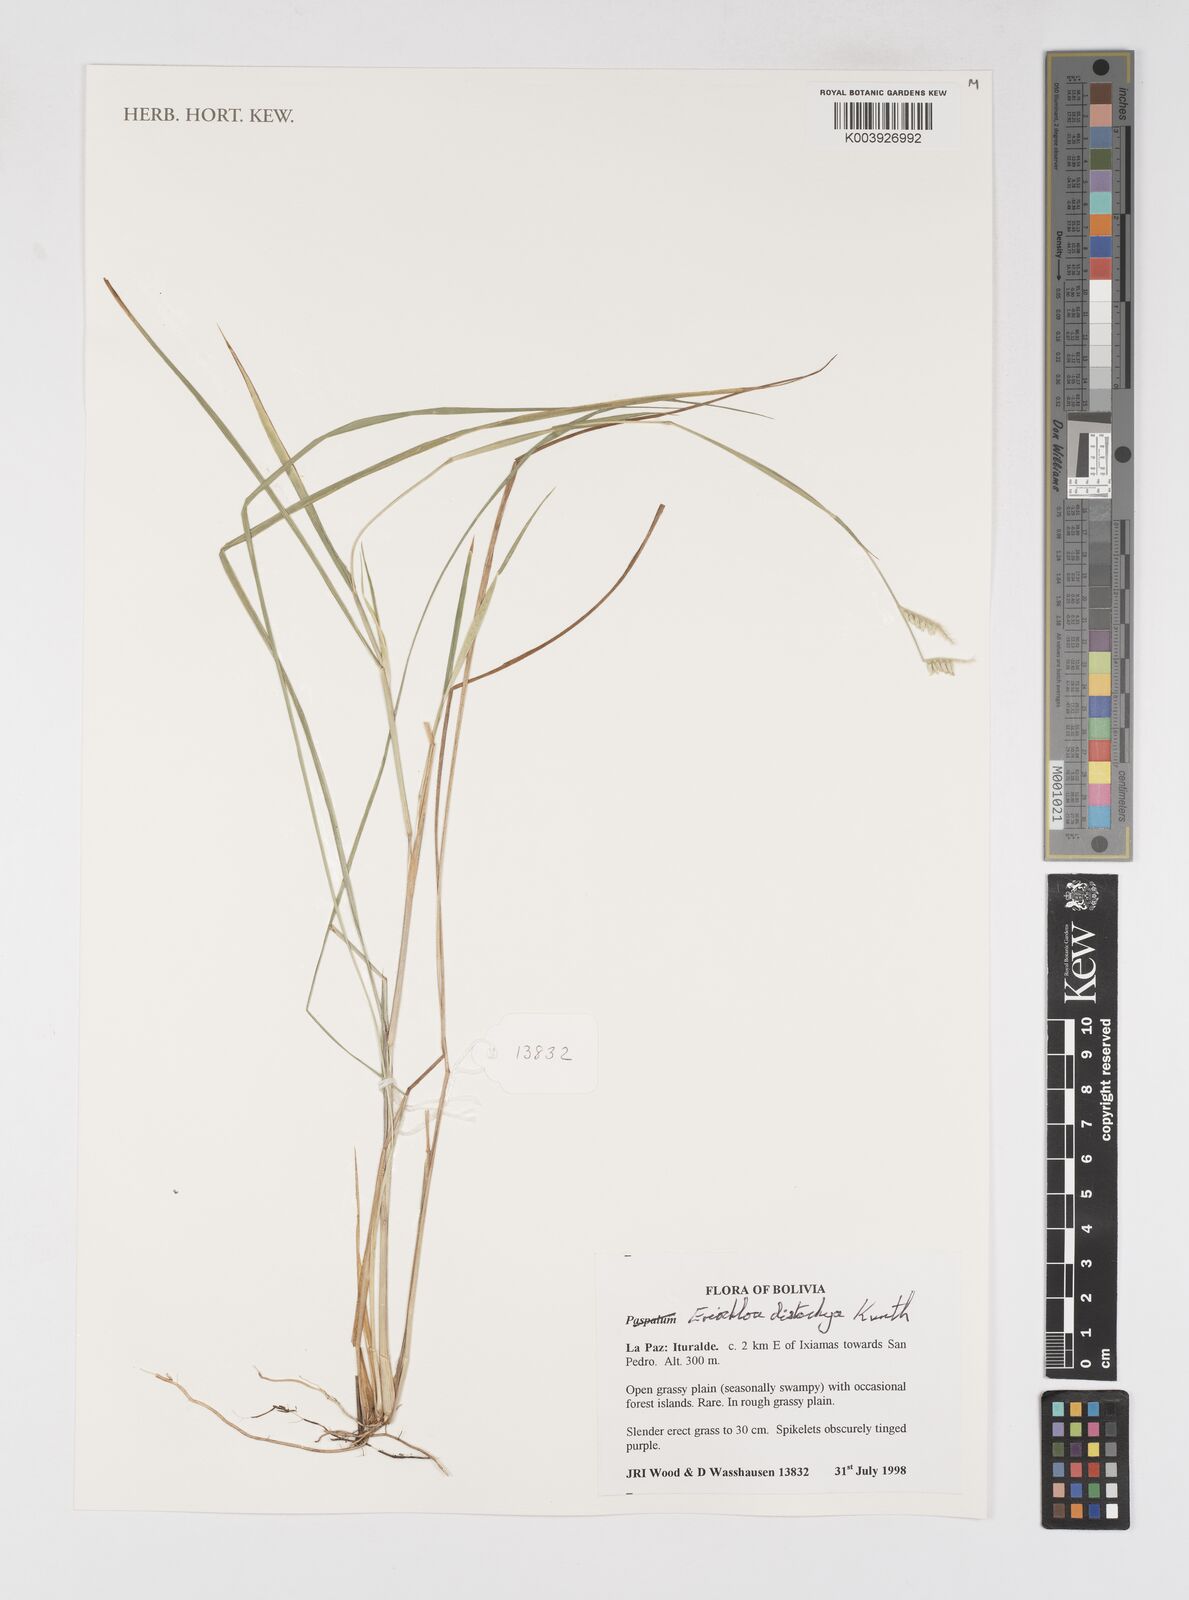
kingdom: Plantae
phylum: Tracheophyta
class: Liliopsida
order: Poales
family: Poaceae
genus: Eriochloa
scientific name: Eriochloa distachya
